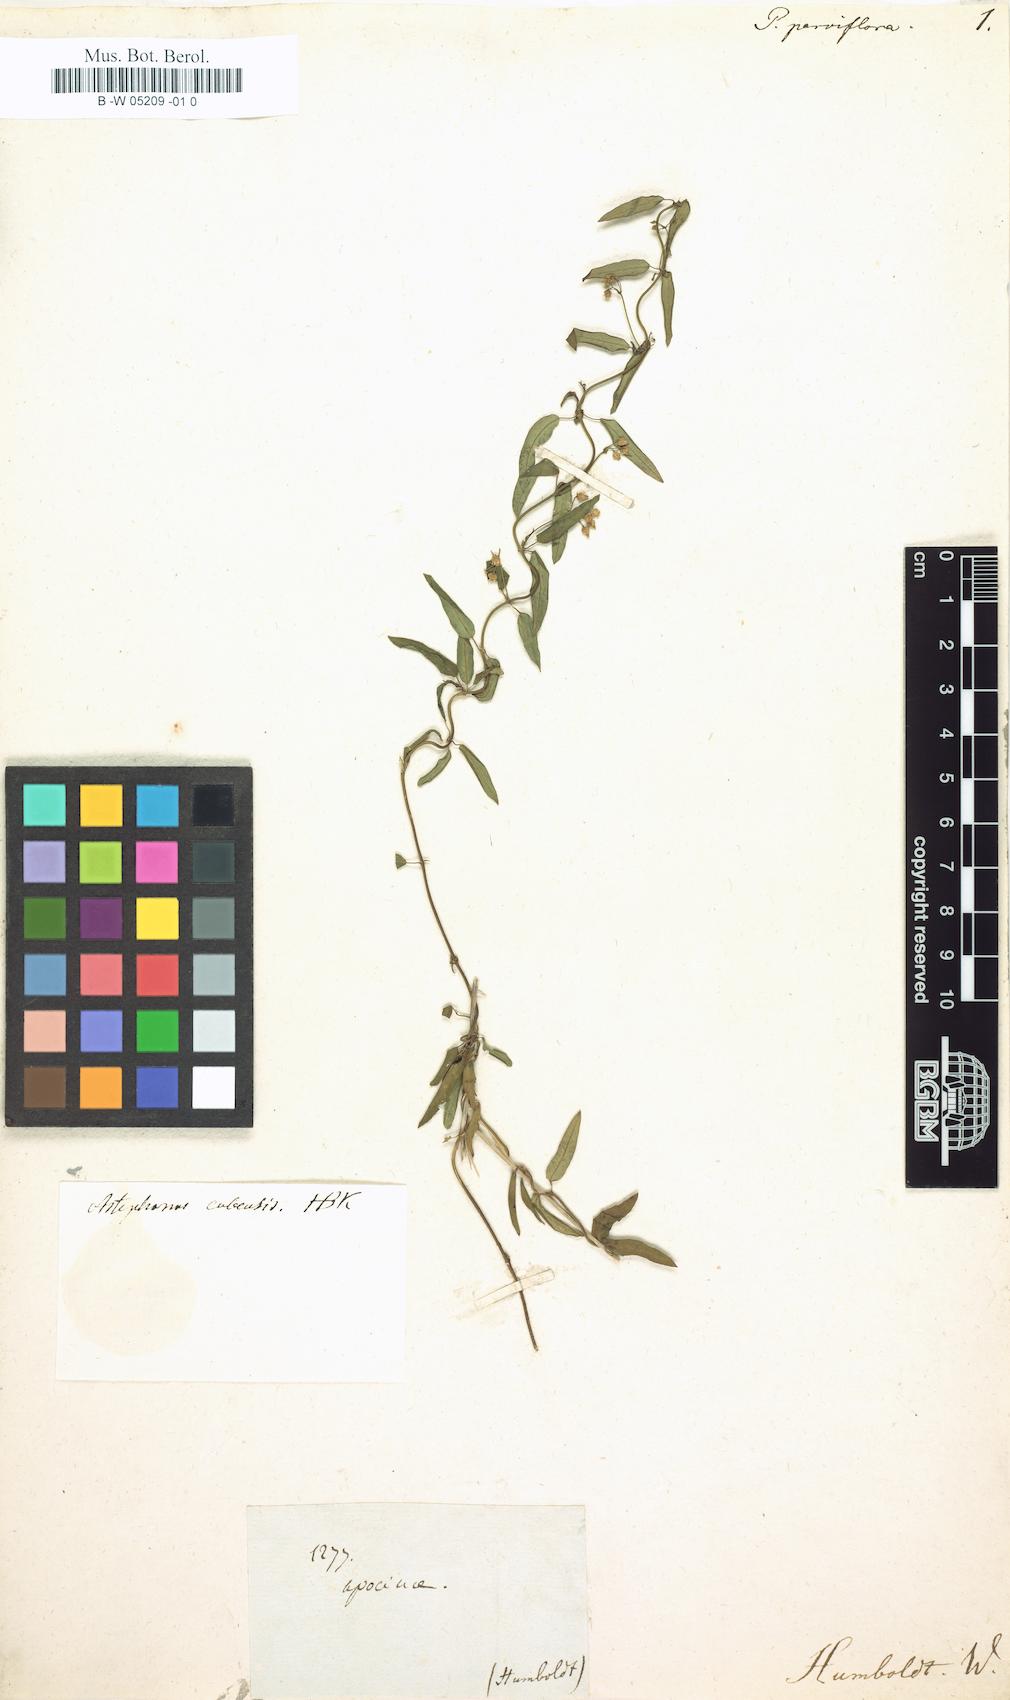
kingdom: Plantae
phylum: Tracheophyta
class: Magnoliopsida
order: Gentianales
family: Apocynaceae
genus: Metastelma
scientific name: Metastelma pubipetalum
